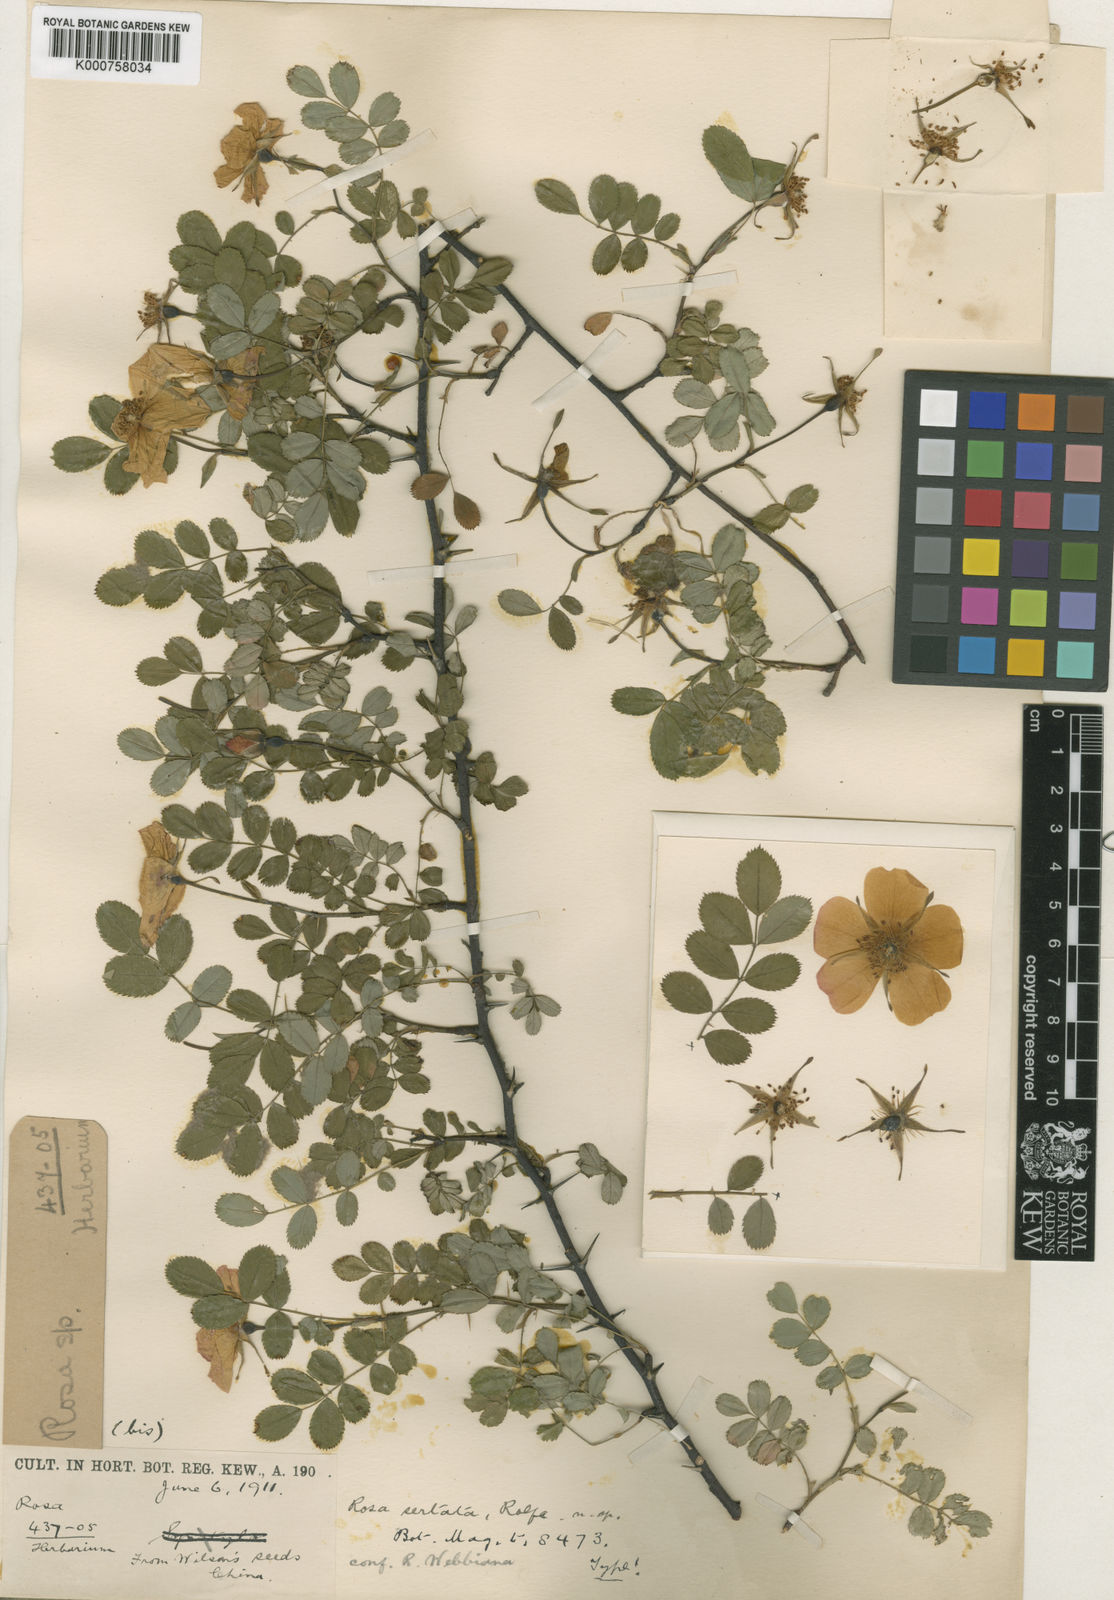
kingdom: Plantae
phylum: Tracheophyta
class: Magnoliopsida
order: Rosales
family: Rosaceae
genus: Rosa
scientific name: Rosa sertata
